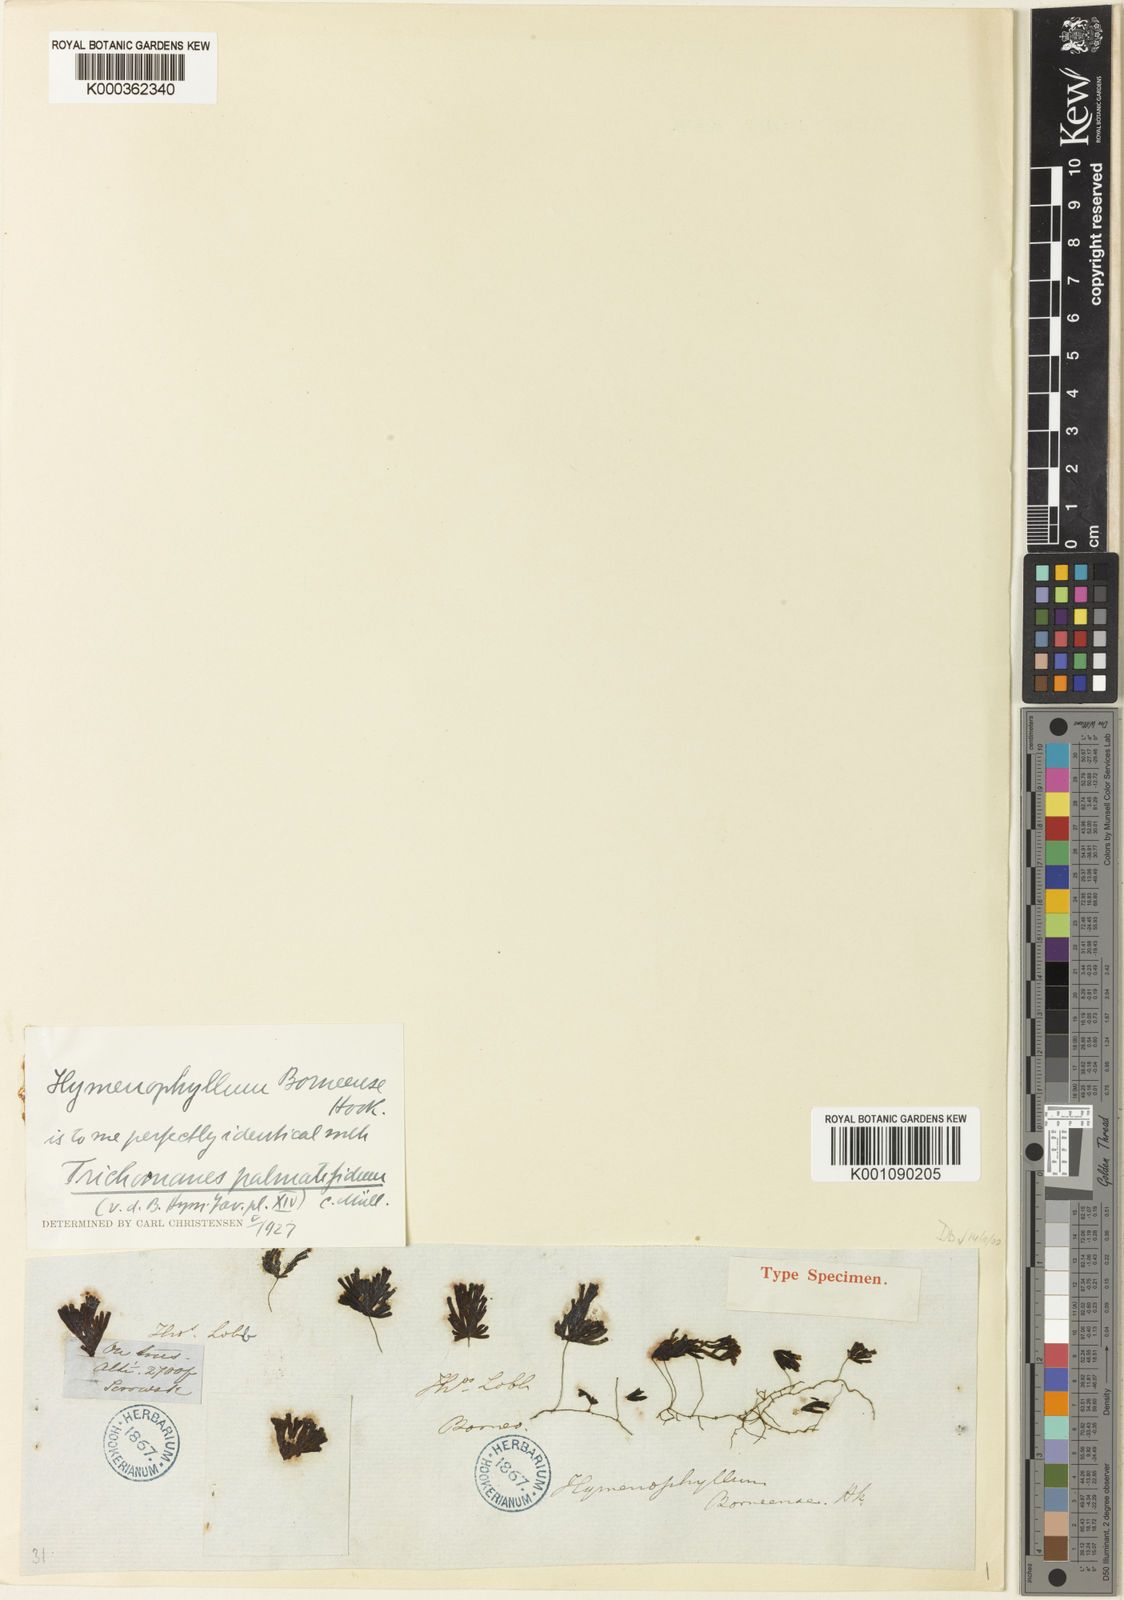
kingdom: Plantae
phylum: Tracheophyta
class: Polypodiopsida
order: Hymenophyllales
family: Hymenophyllaceae
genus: Trichomanes
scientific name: Trichomanes
